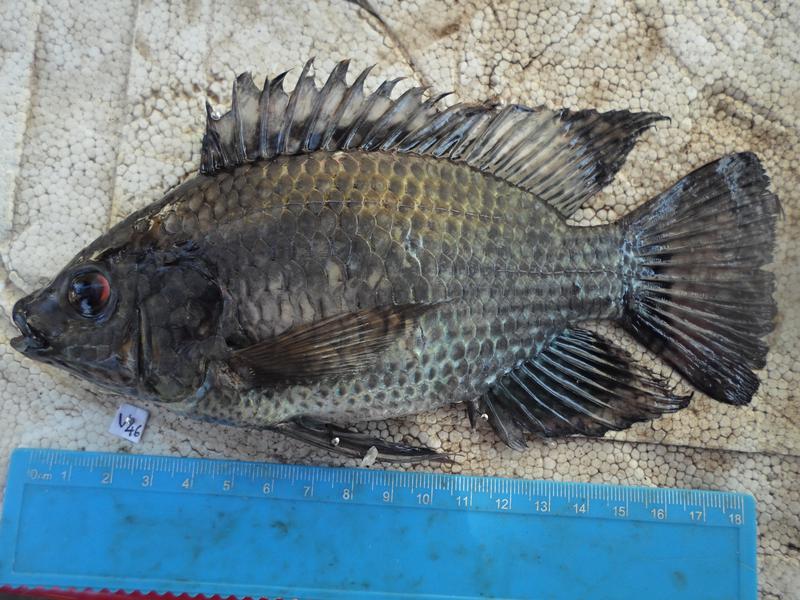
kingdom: Animalia
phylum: Chordata
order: Perciformes
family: Cichlidae
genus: Oreochromis
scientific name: Oreochromis leucostictus
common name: Blue spotted tilapia
